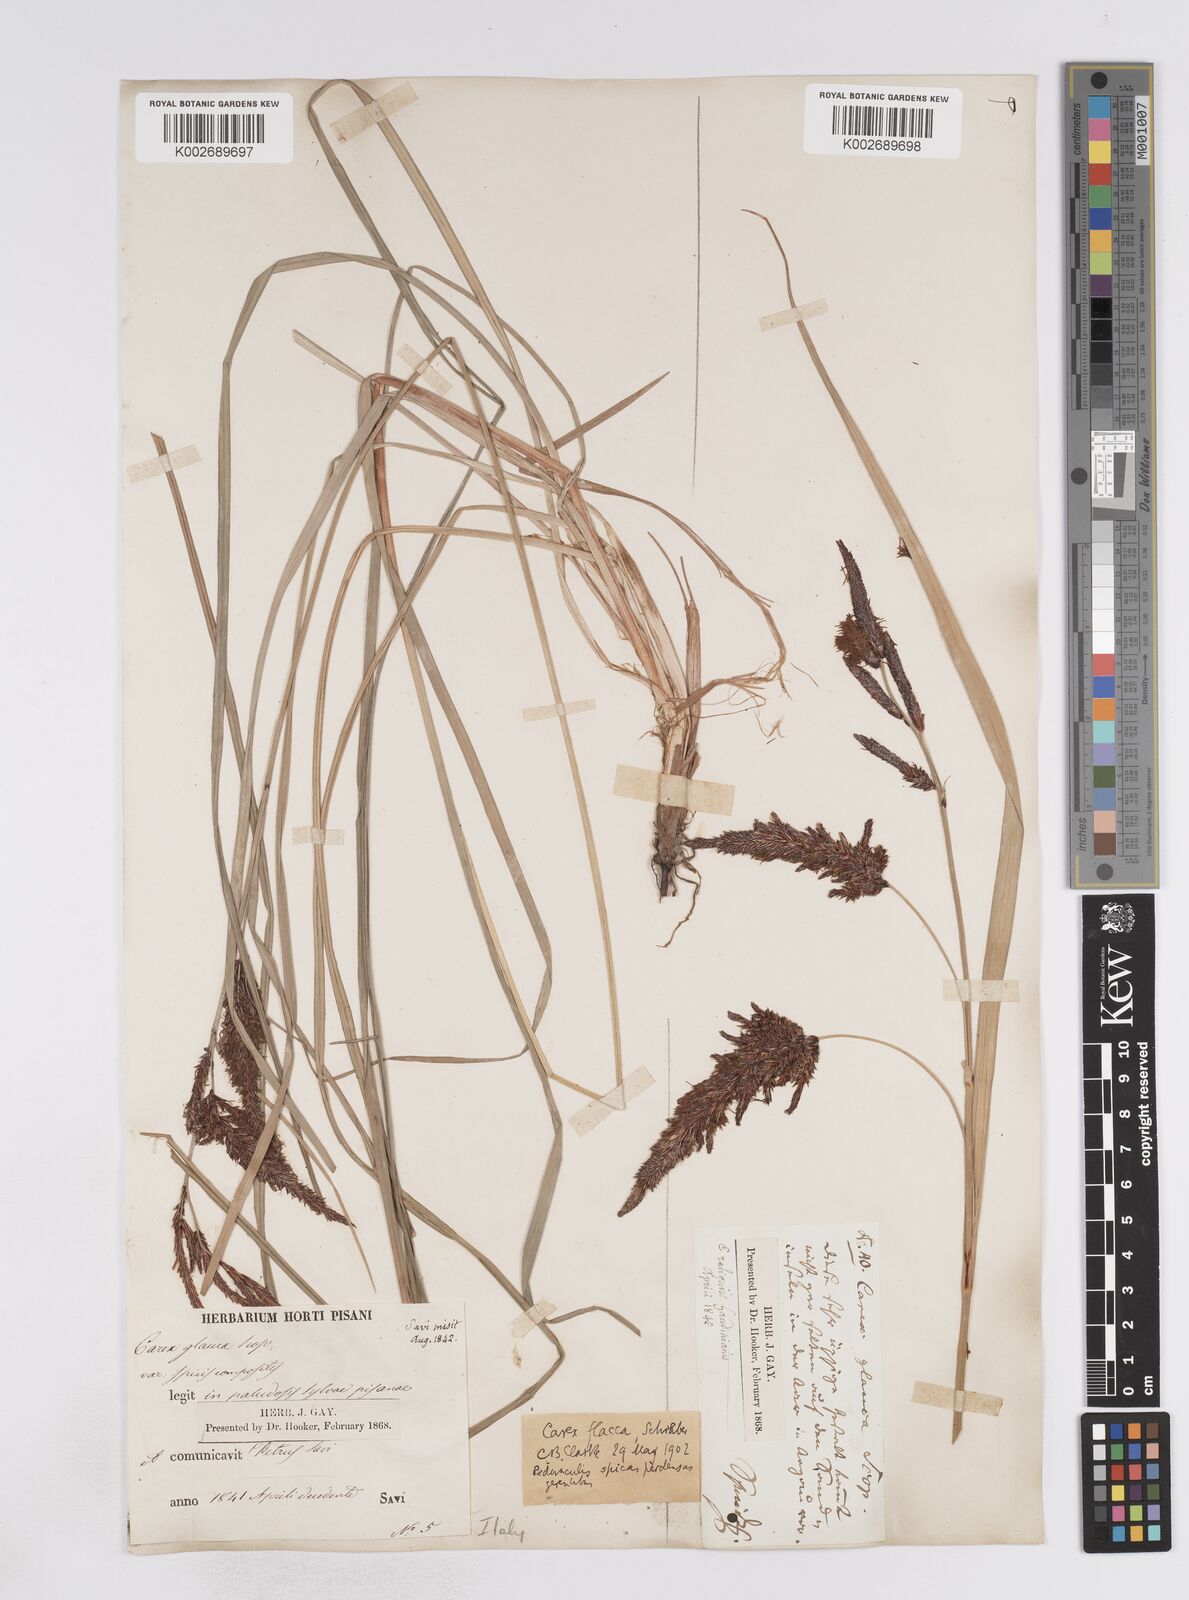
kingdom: Plantae
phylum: Tracheophyta
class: Liliopsida
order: Poales
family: Cyperaceae
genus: Carex
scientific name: Carex flacca
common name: Glaucous sedge
